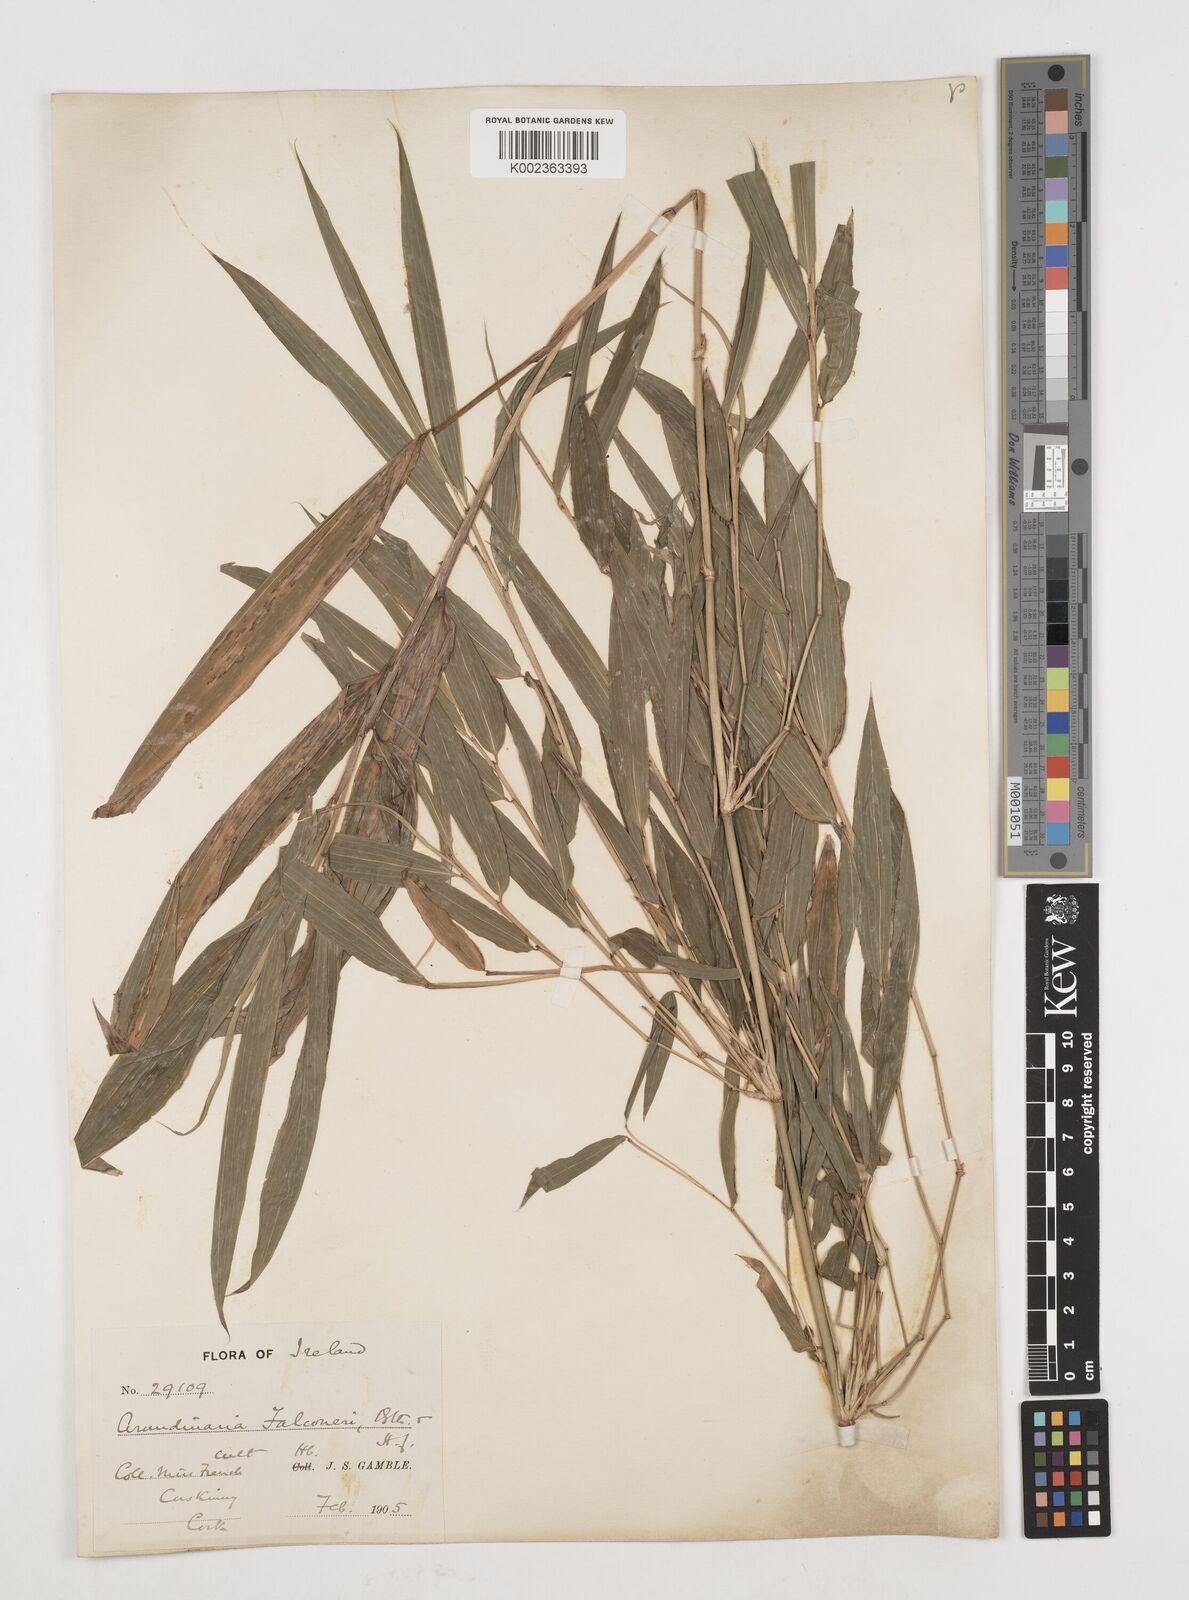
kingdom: Plantae
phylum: Tracheophyta
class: Liliopsida
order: Poales
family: Poaceae
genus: Himalayacalamus
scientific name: Himalayacalamus
